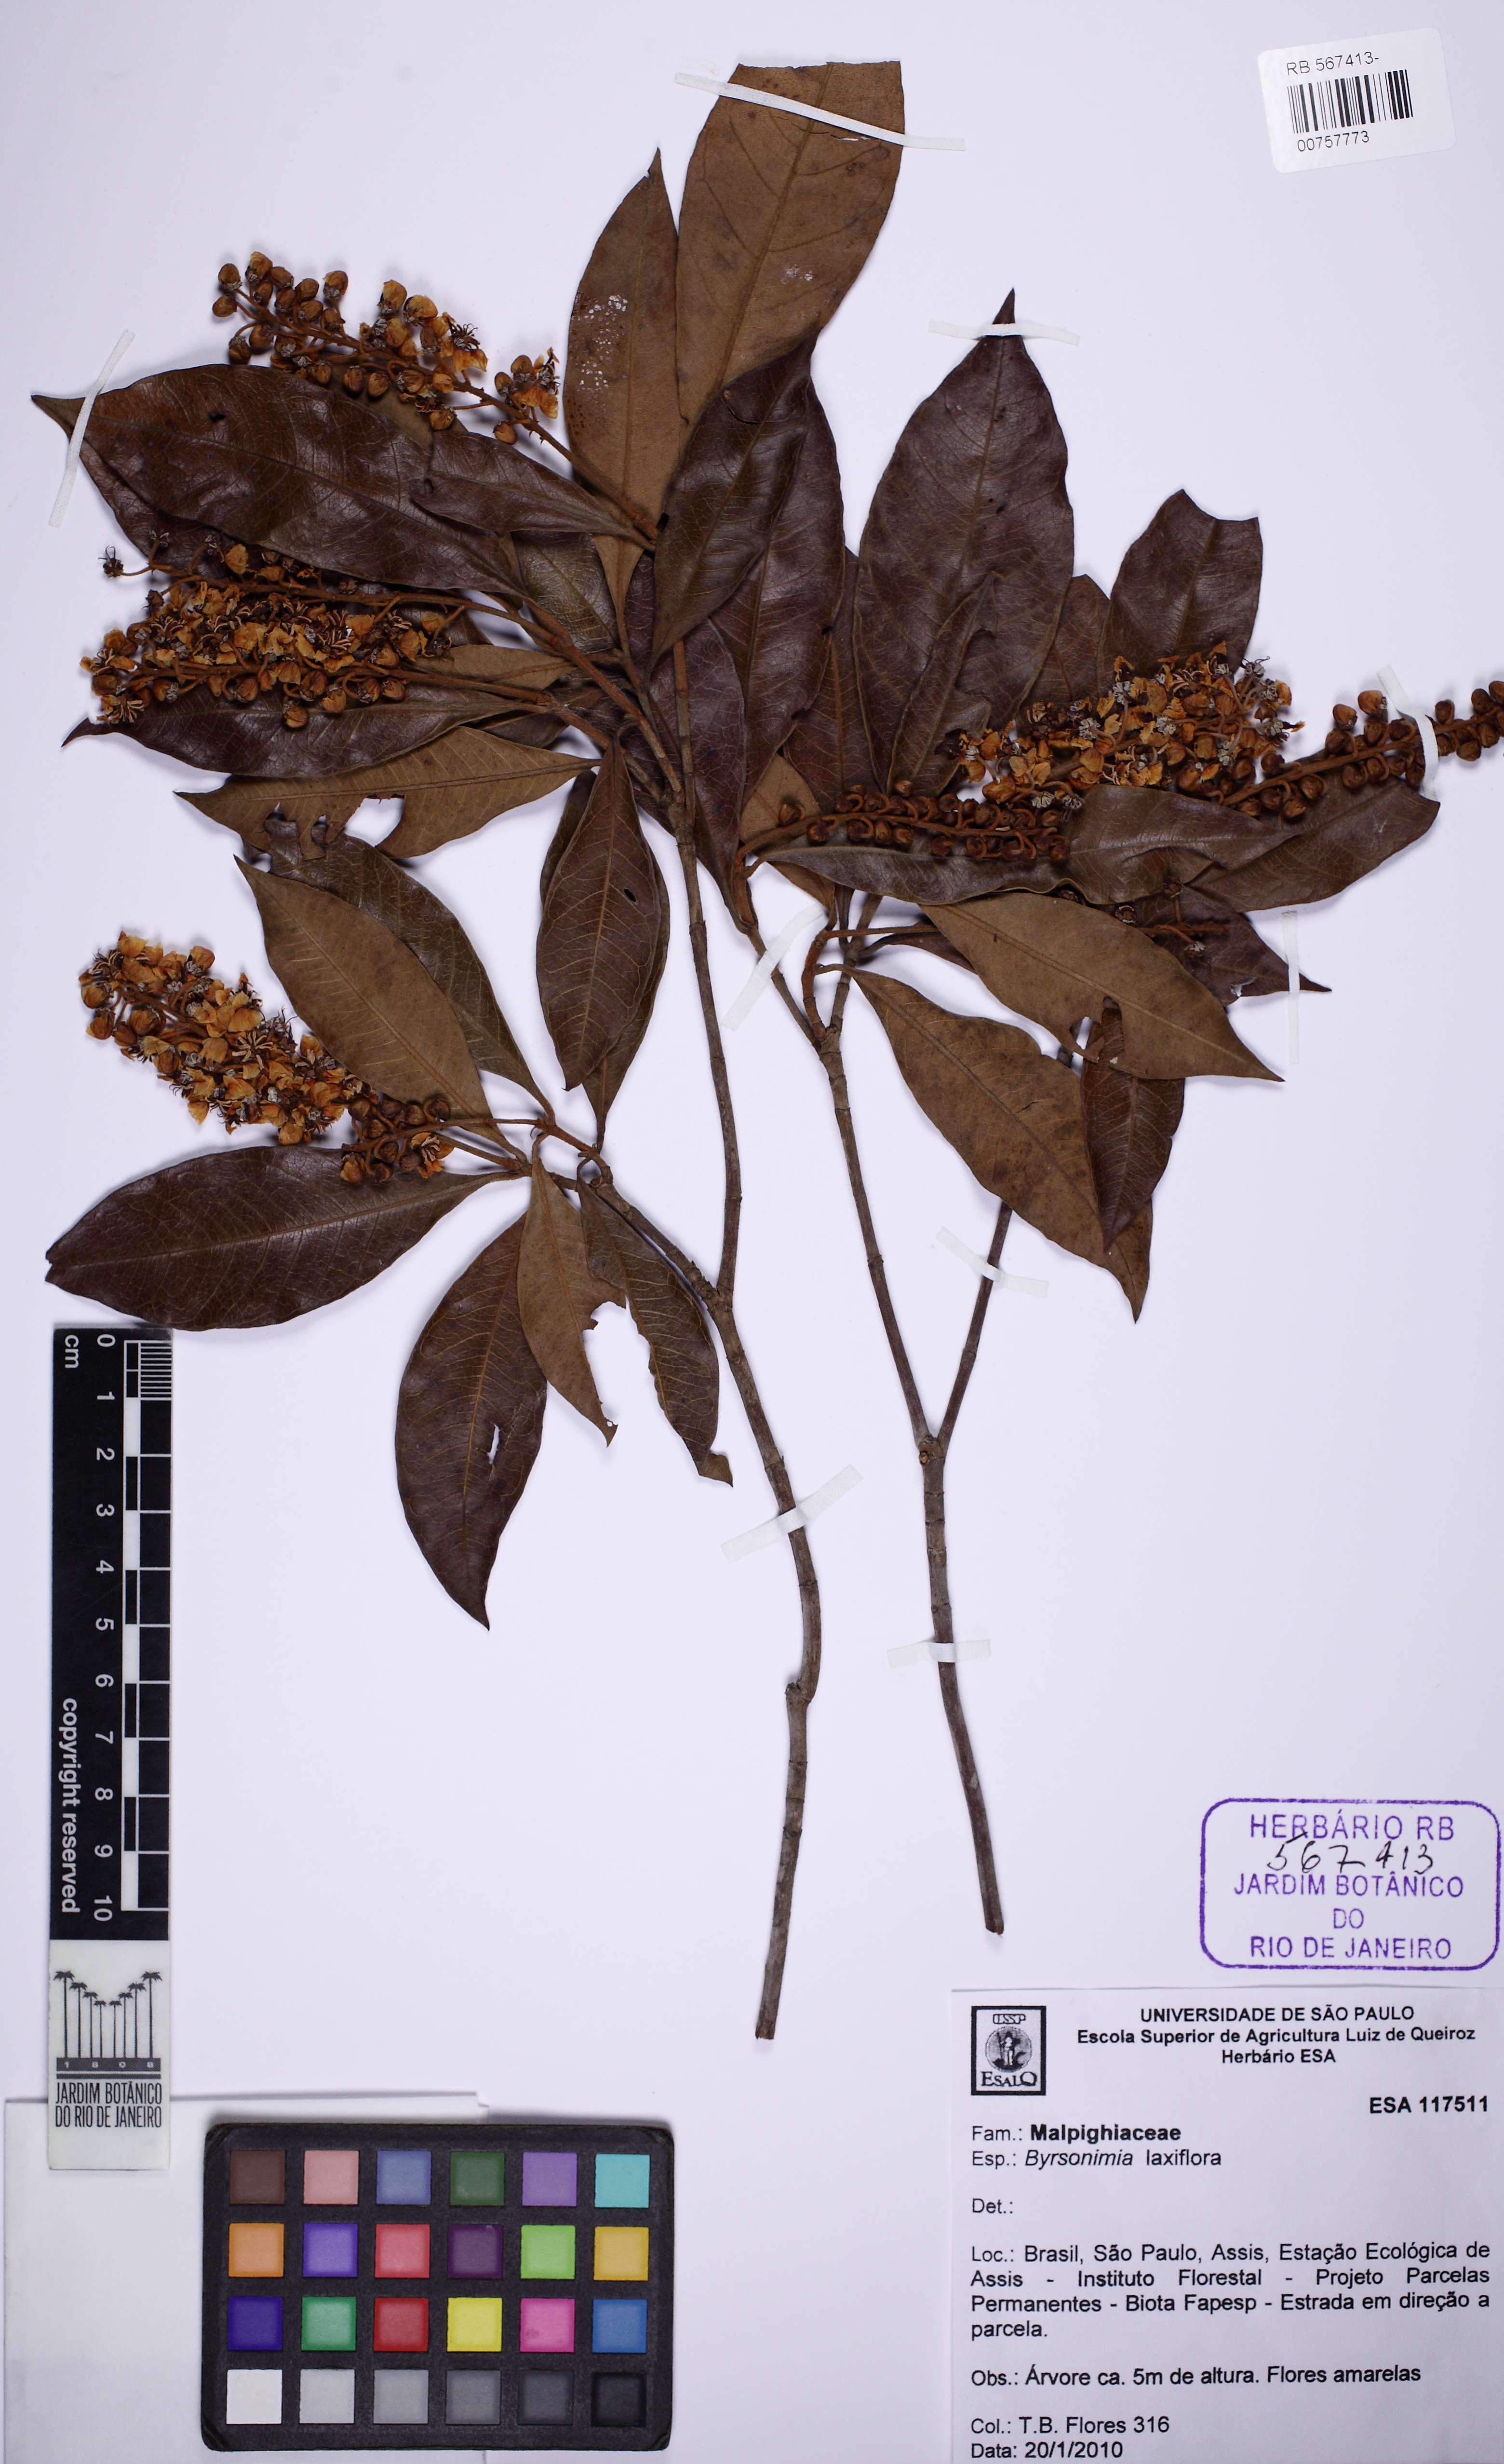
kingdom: Plantae
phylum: Tracheophyta
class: Magnoliopsida
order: Malpighiales
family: Malpighiaceae
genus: Byrsonima
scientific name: Byrsonima laxiflora
